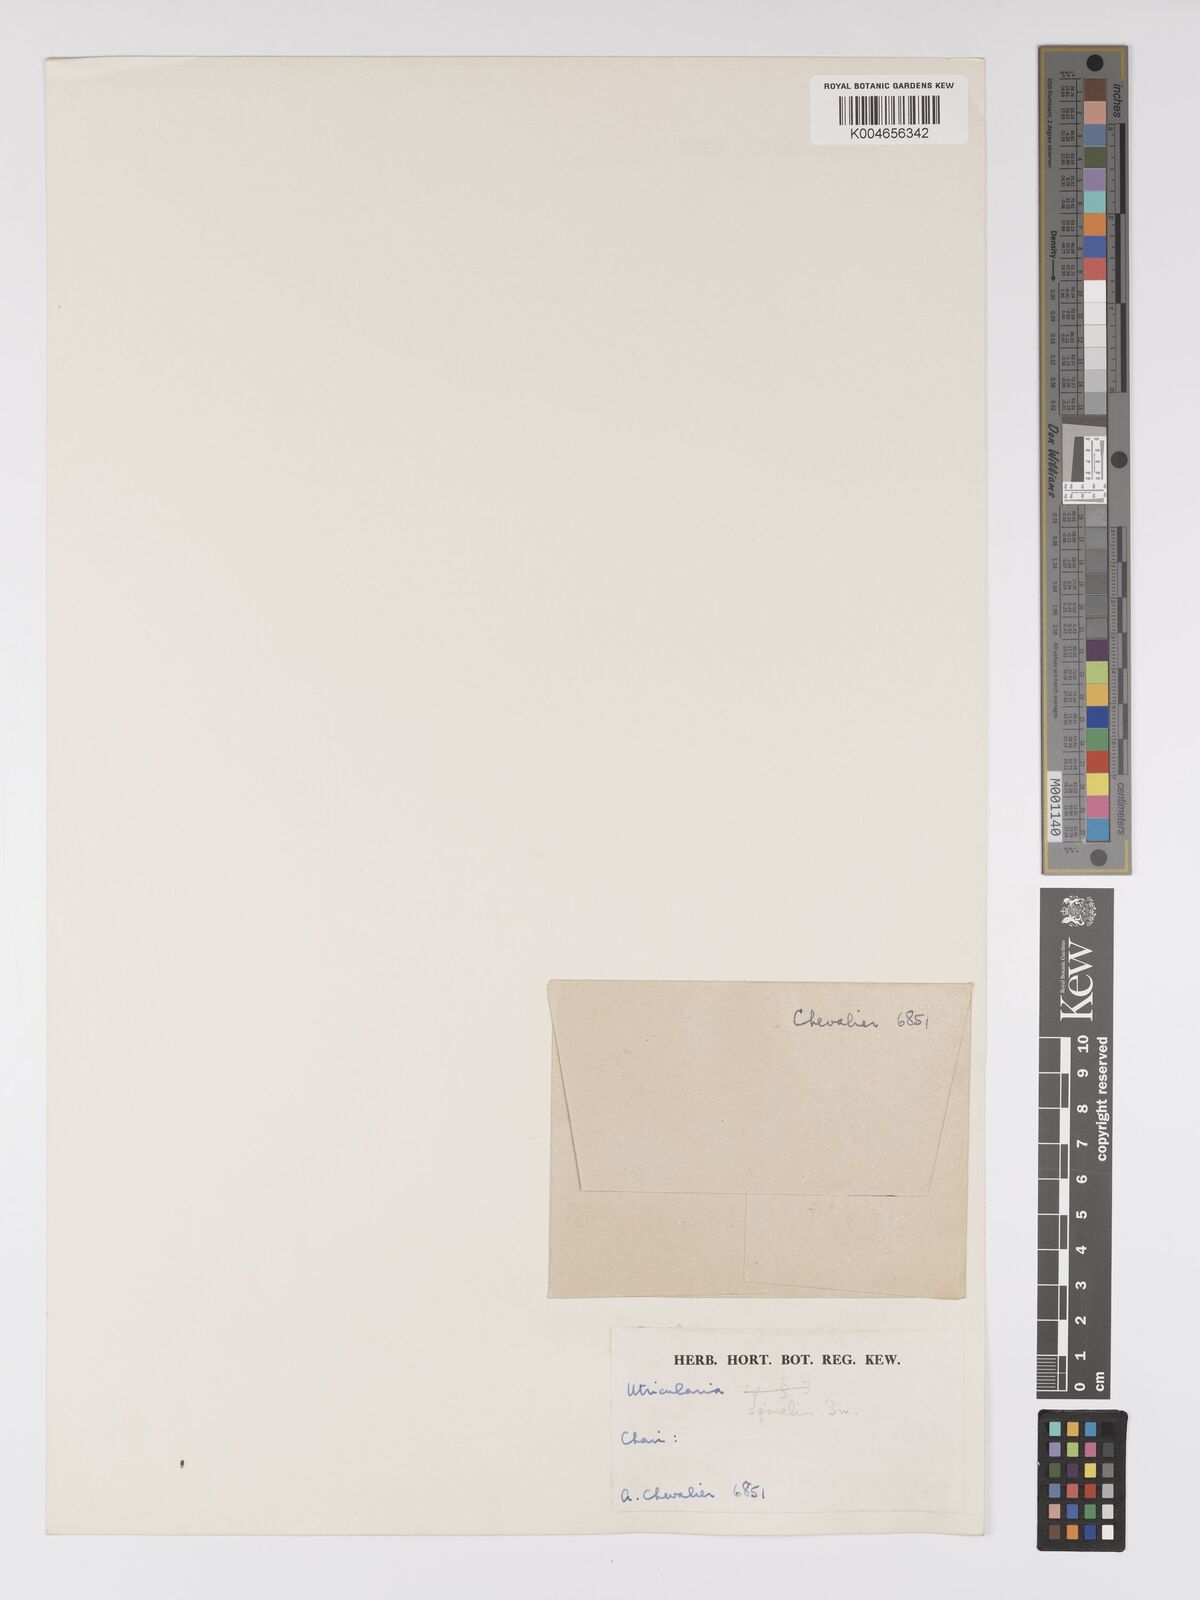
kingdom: Plantae
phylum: Tracheophyta
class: Magnoliopsida
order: Lamiales
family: Lentibulariaceae
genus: Utricularia
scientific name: Utricularia spiralis
